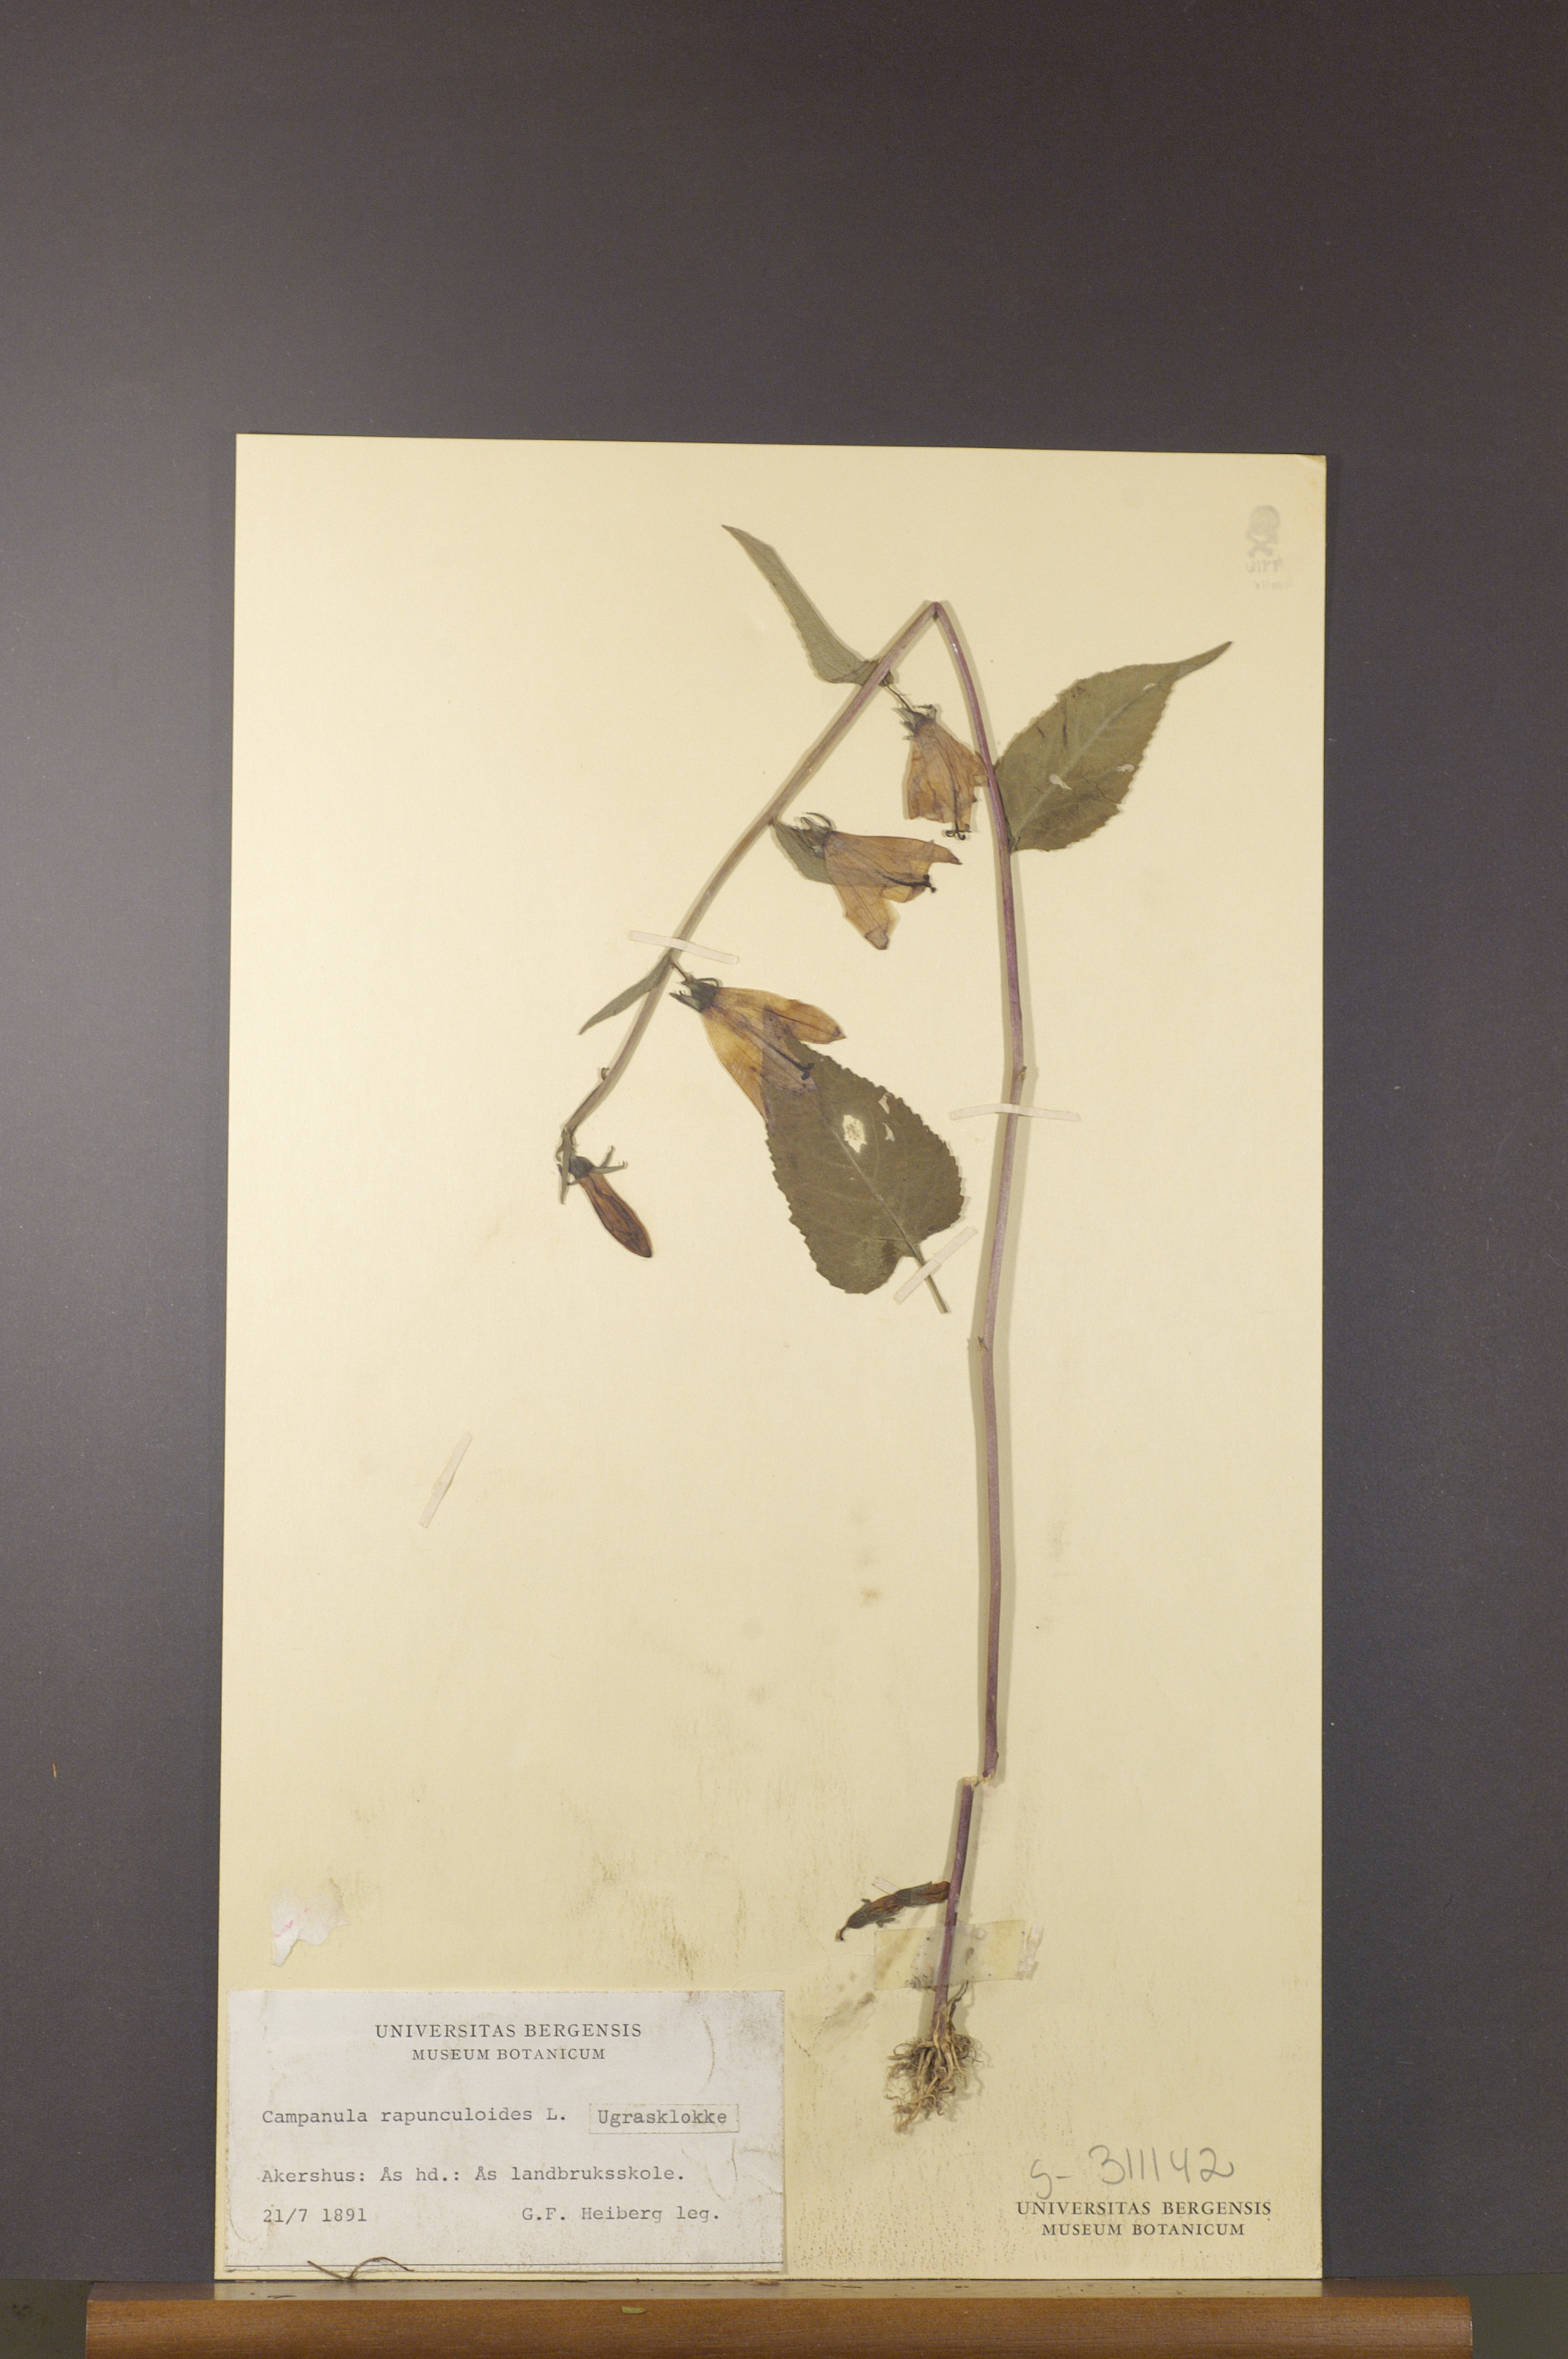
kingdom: Plantae
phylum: Tracheophyta
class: Magnoliopsida
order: Asterales
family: Campanulaceae
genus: Campanula
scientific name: Campanula rapunculoides
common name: Creeping bellflower
